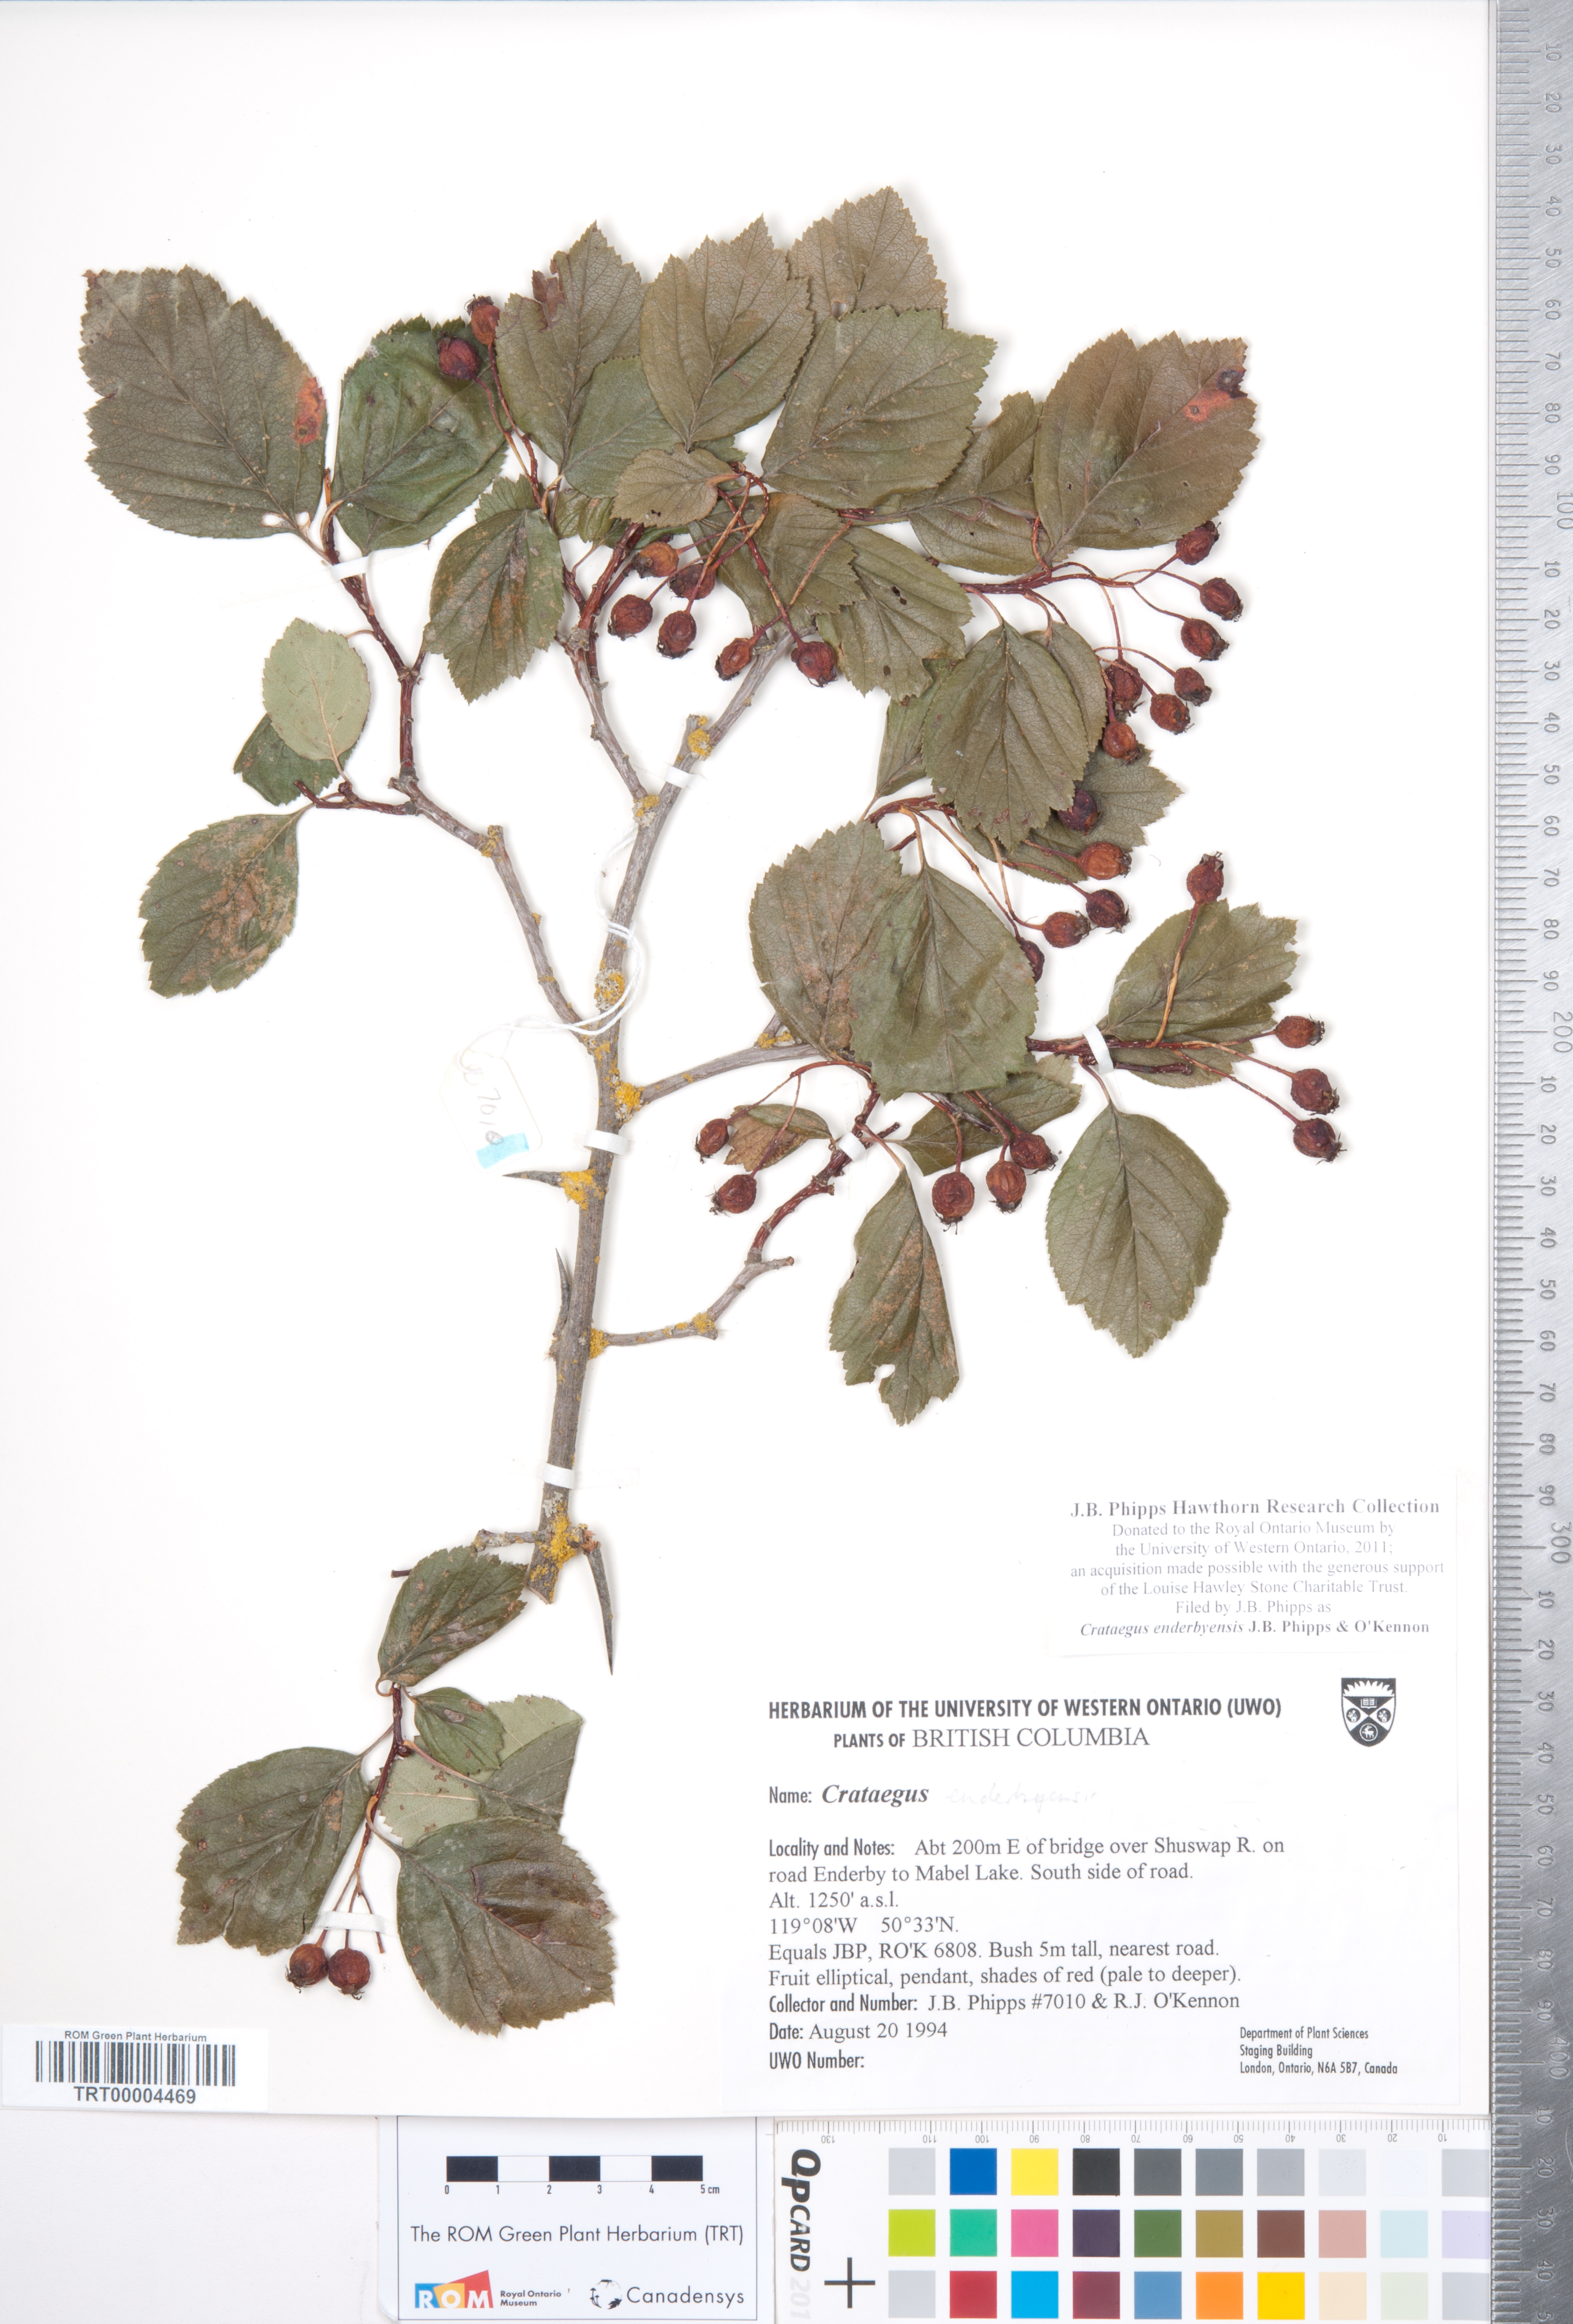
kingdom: Plantae
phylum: Tracheophyta
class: Magnoliopsida
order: Rosales
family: Rosaceae
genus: Crataegus
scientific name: Crataegus enderbyensis
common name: Enderby hawthorn
